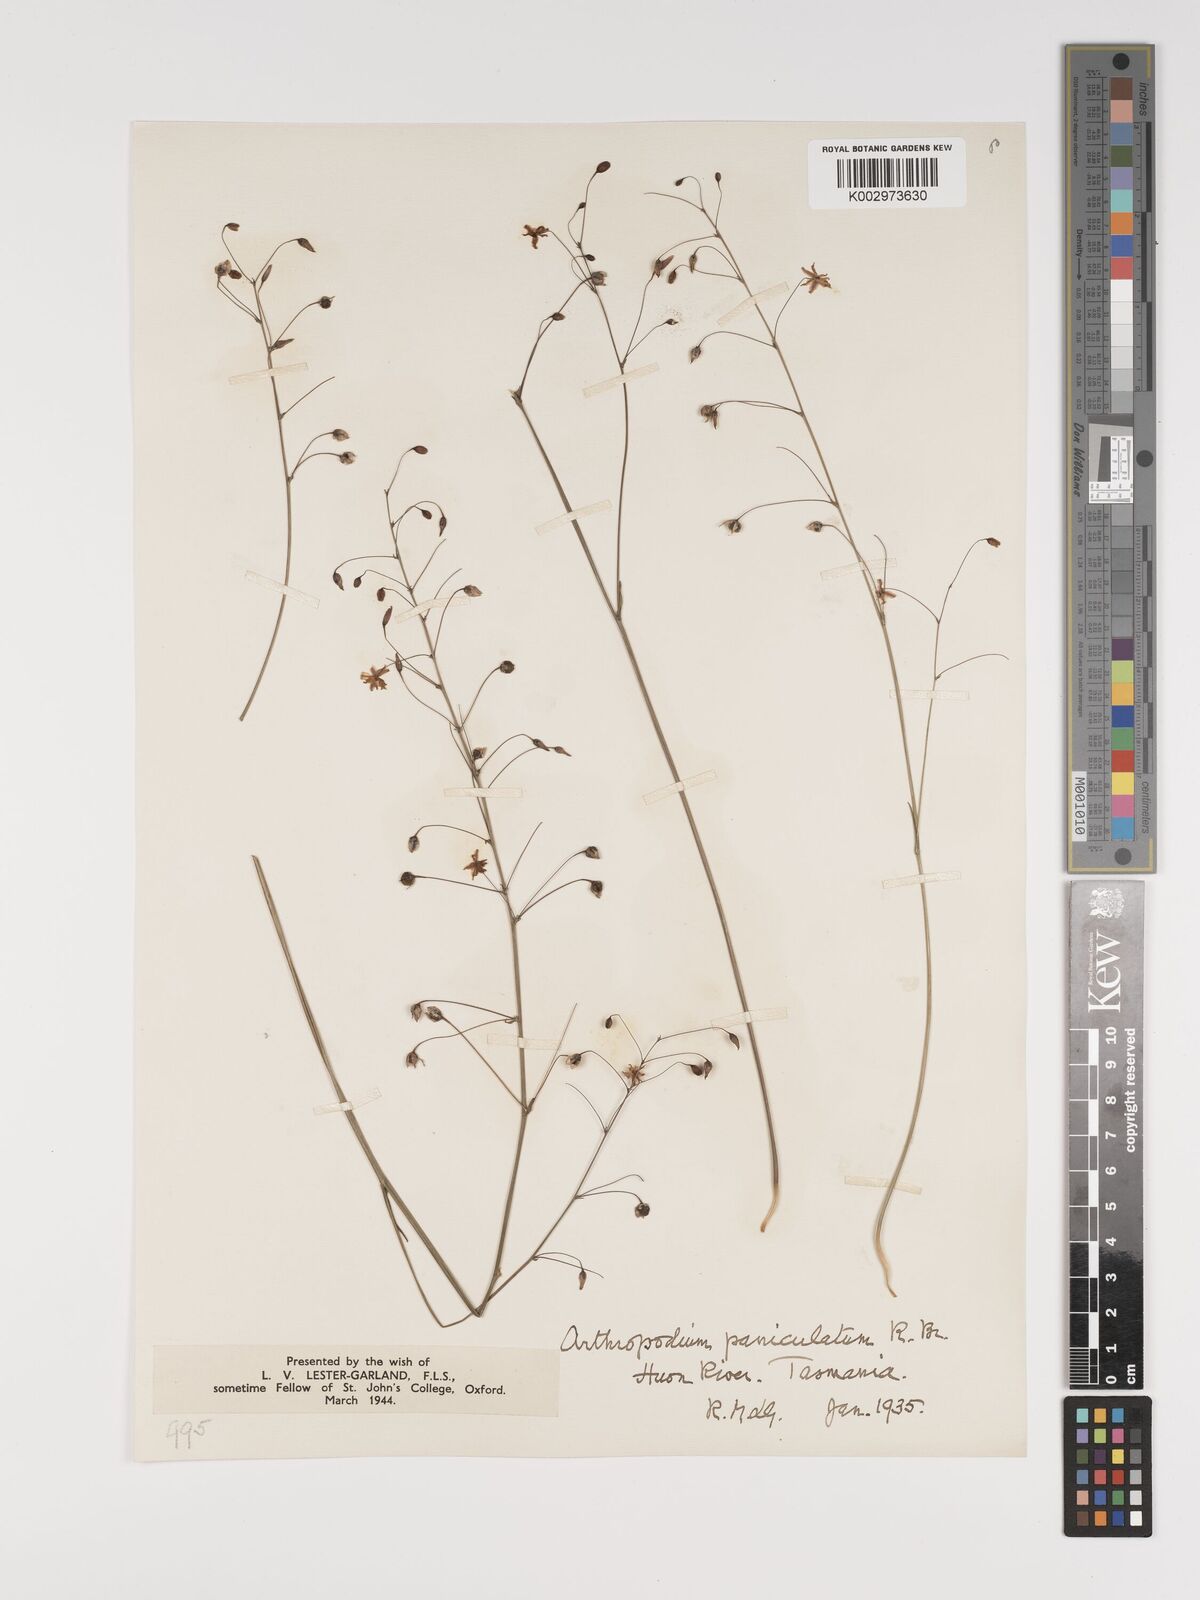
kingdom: Plantae
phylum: Tracheophyta
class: Liliopsida
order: Asparagales
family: Asparagaceae
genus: Arthropodium
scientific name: Arthropodium milleflorum
